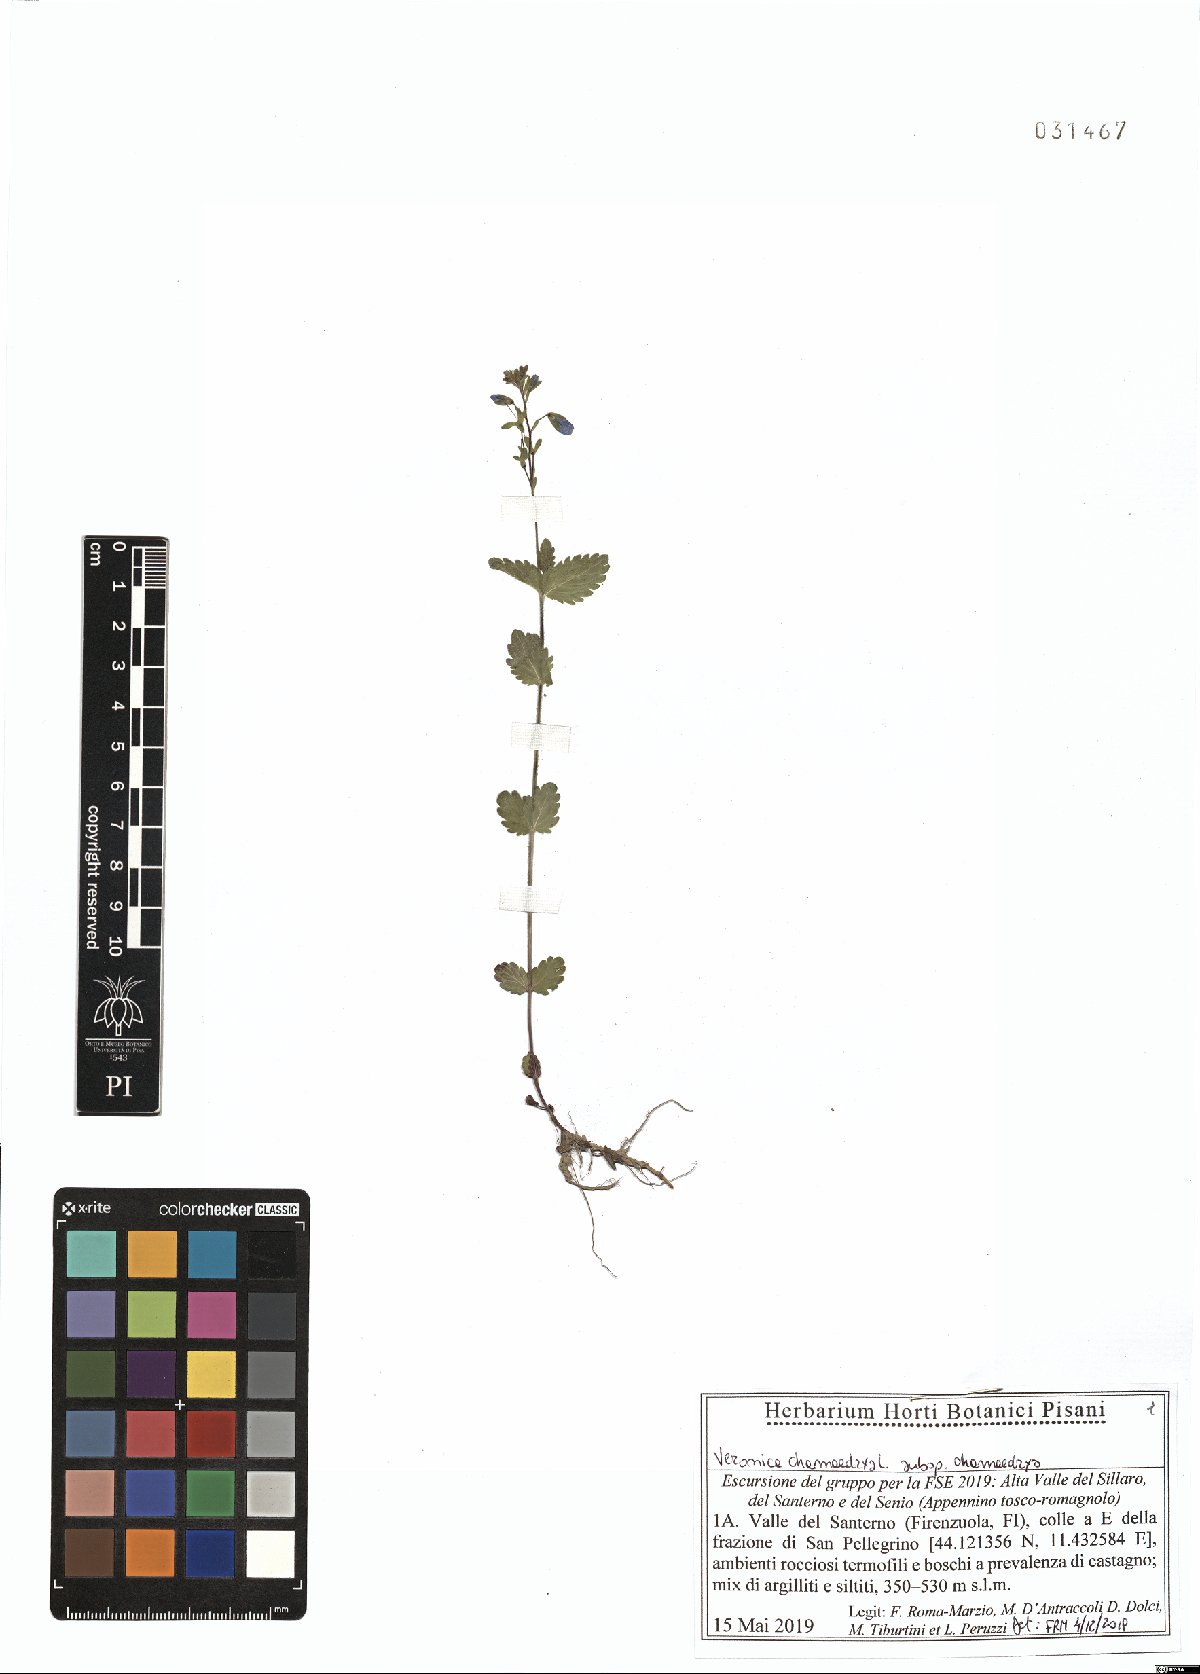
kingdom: Plantae
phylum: Tracheophyta
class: Magnoliopsida
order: Lamiales
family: Plantaginaceae
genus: Veronica
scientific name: Veronica chamaedrys
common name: Germander speedwell
